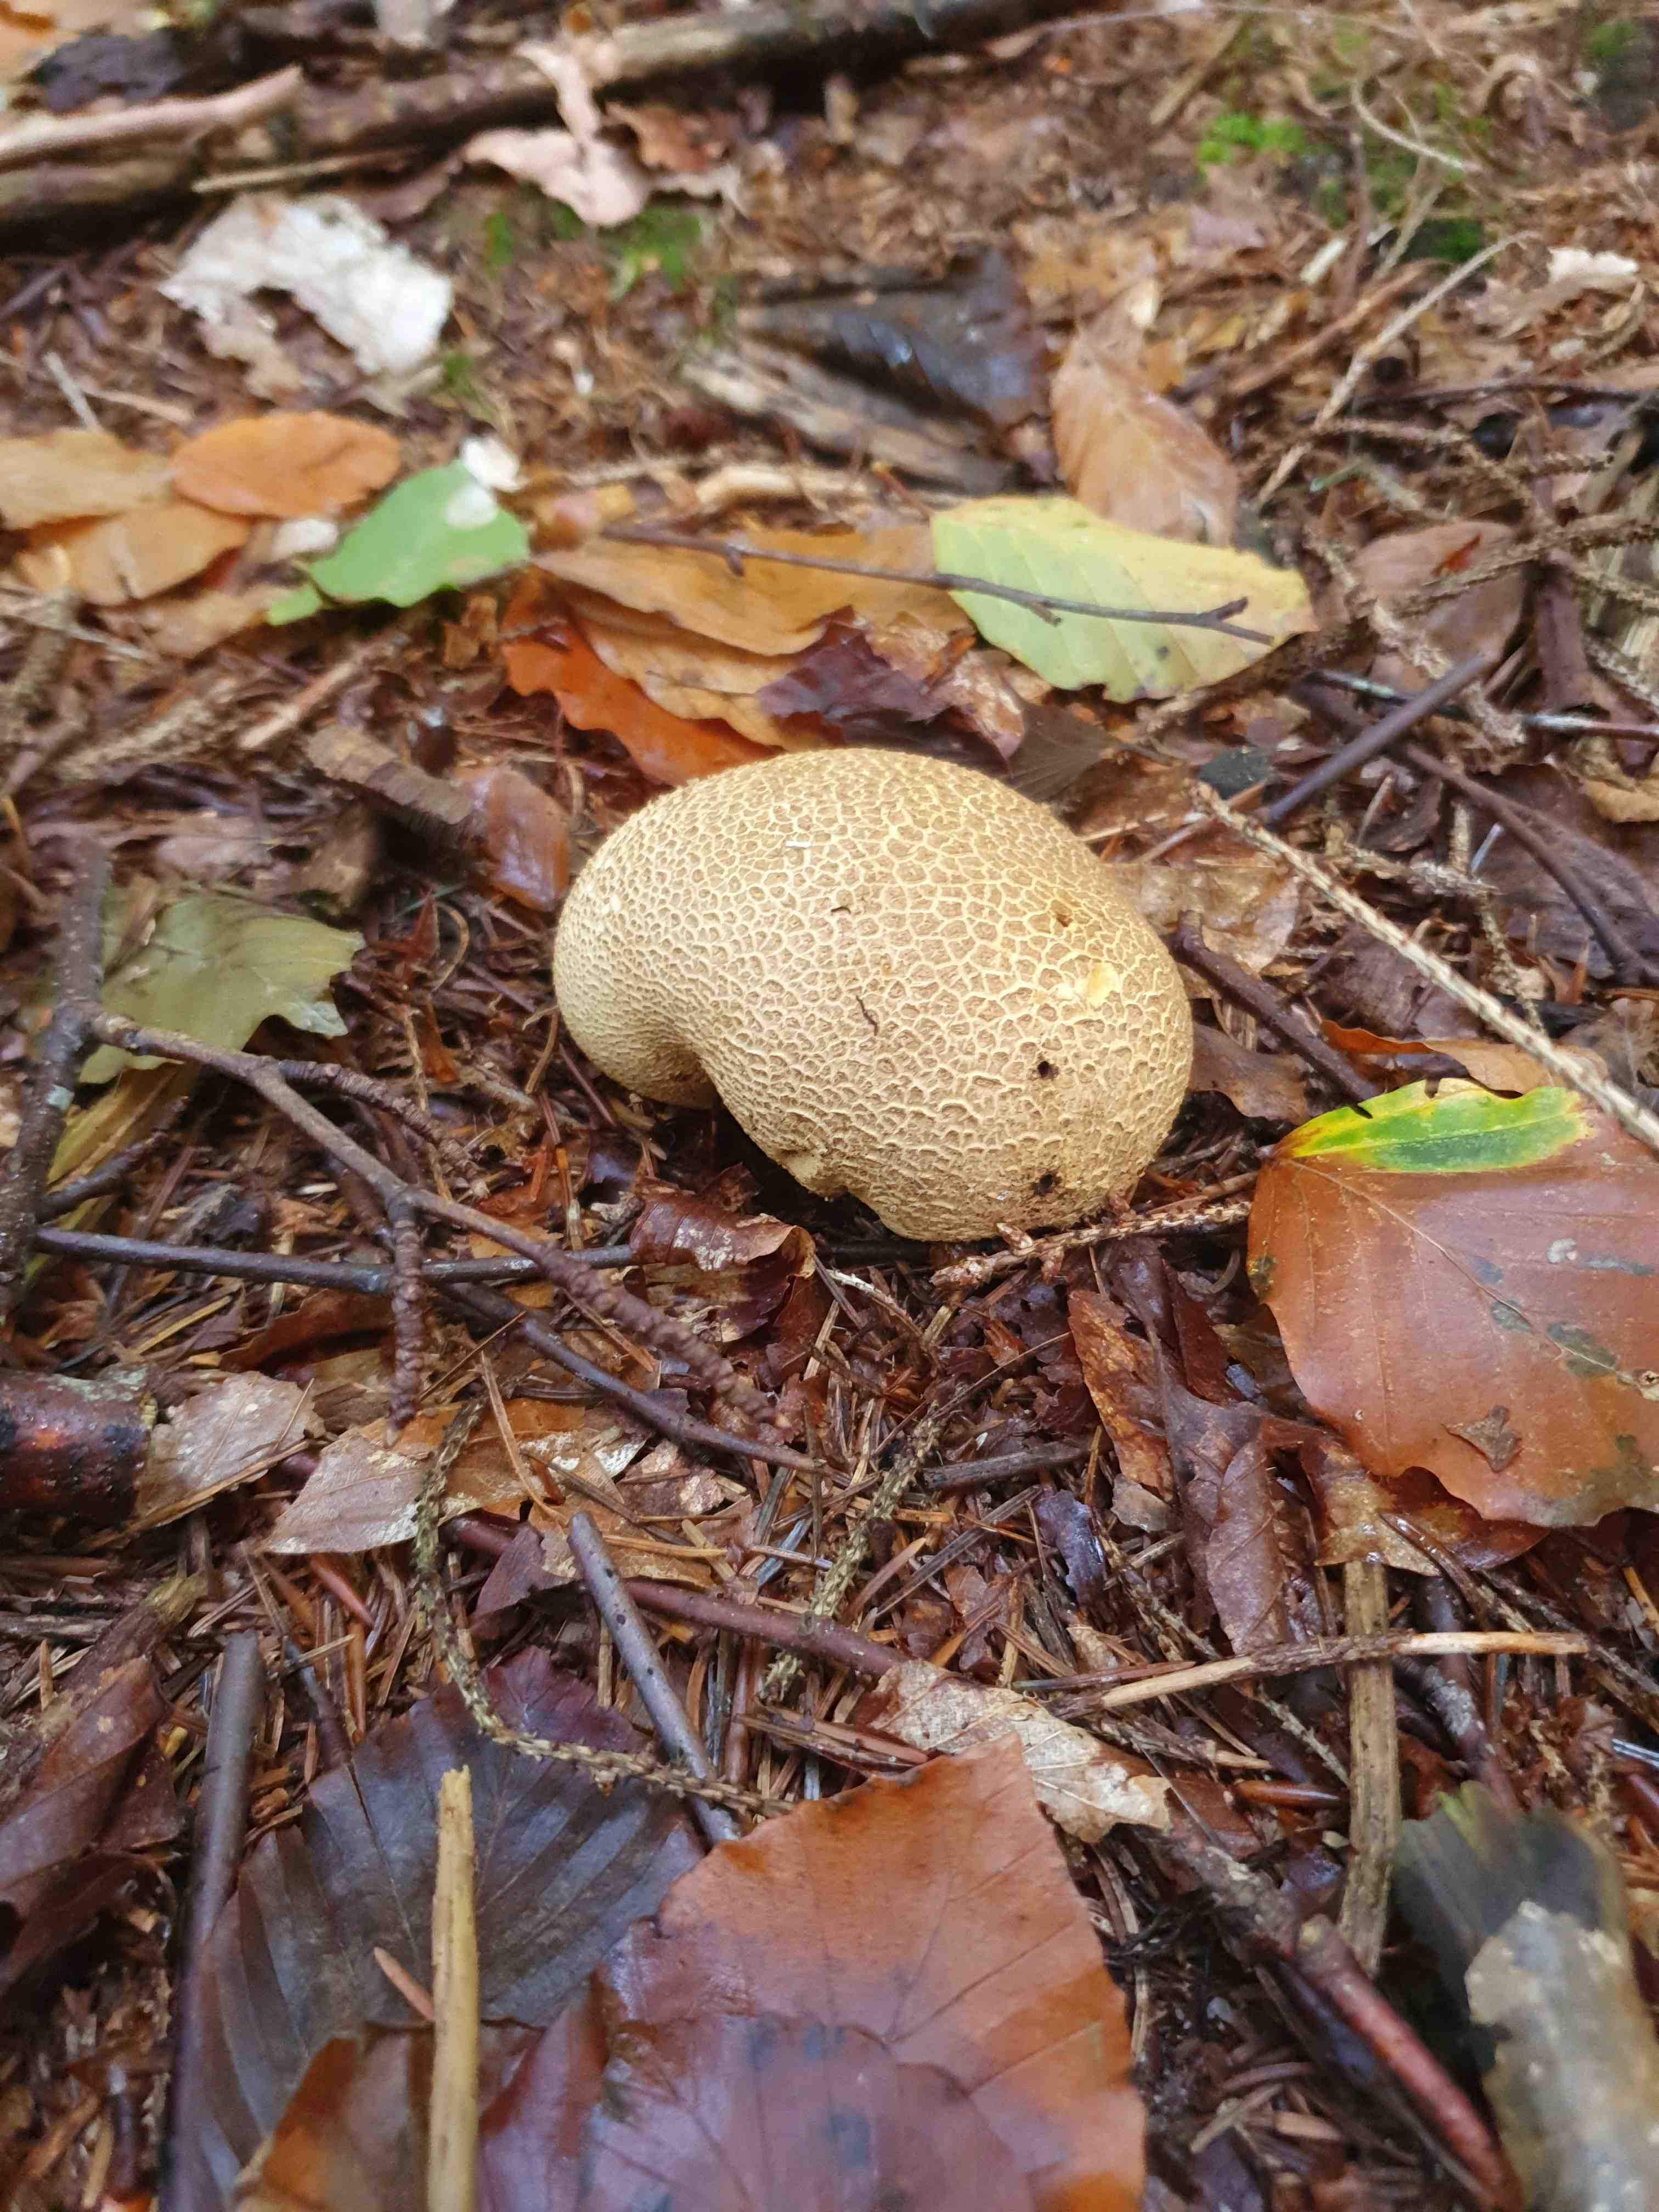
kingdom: Fungi
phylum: Basidiomycota
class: Agaricomycetes
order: Boletales
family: Sclerodermataceae
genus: Scleroderma
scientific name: Scleroderma citrinum
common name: almindelig bruskbold
